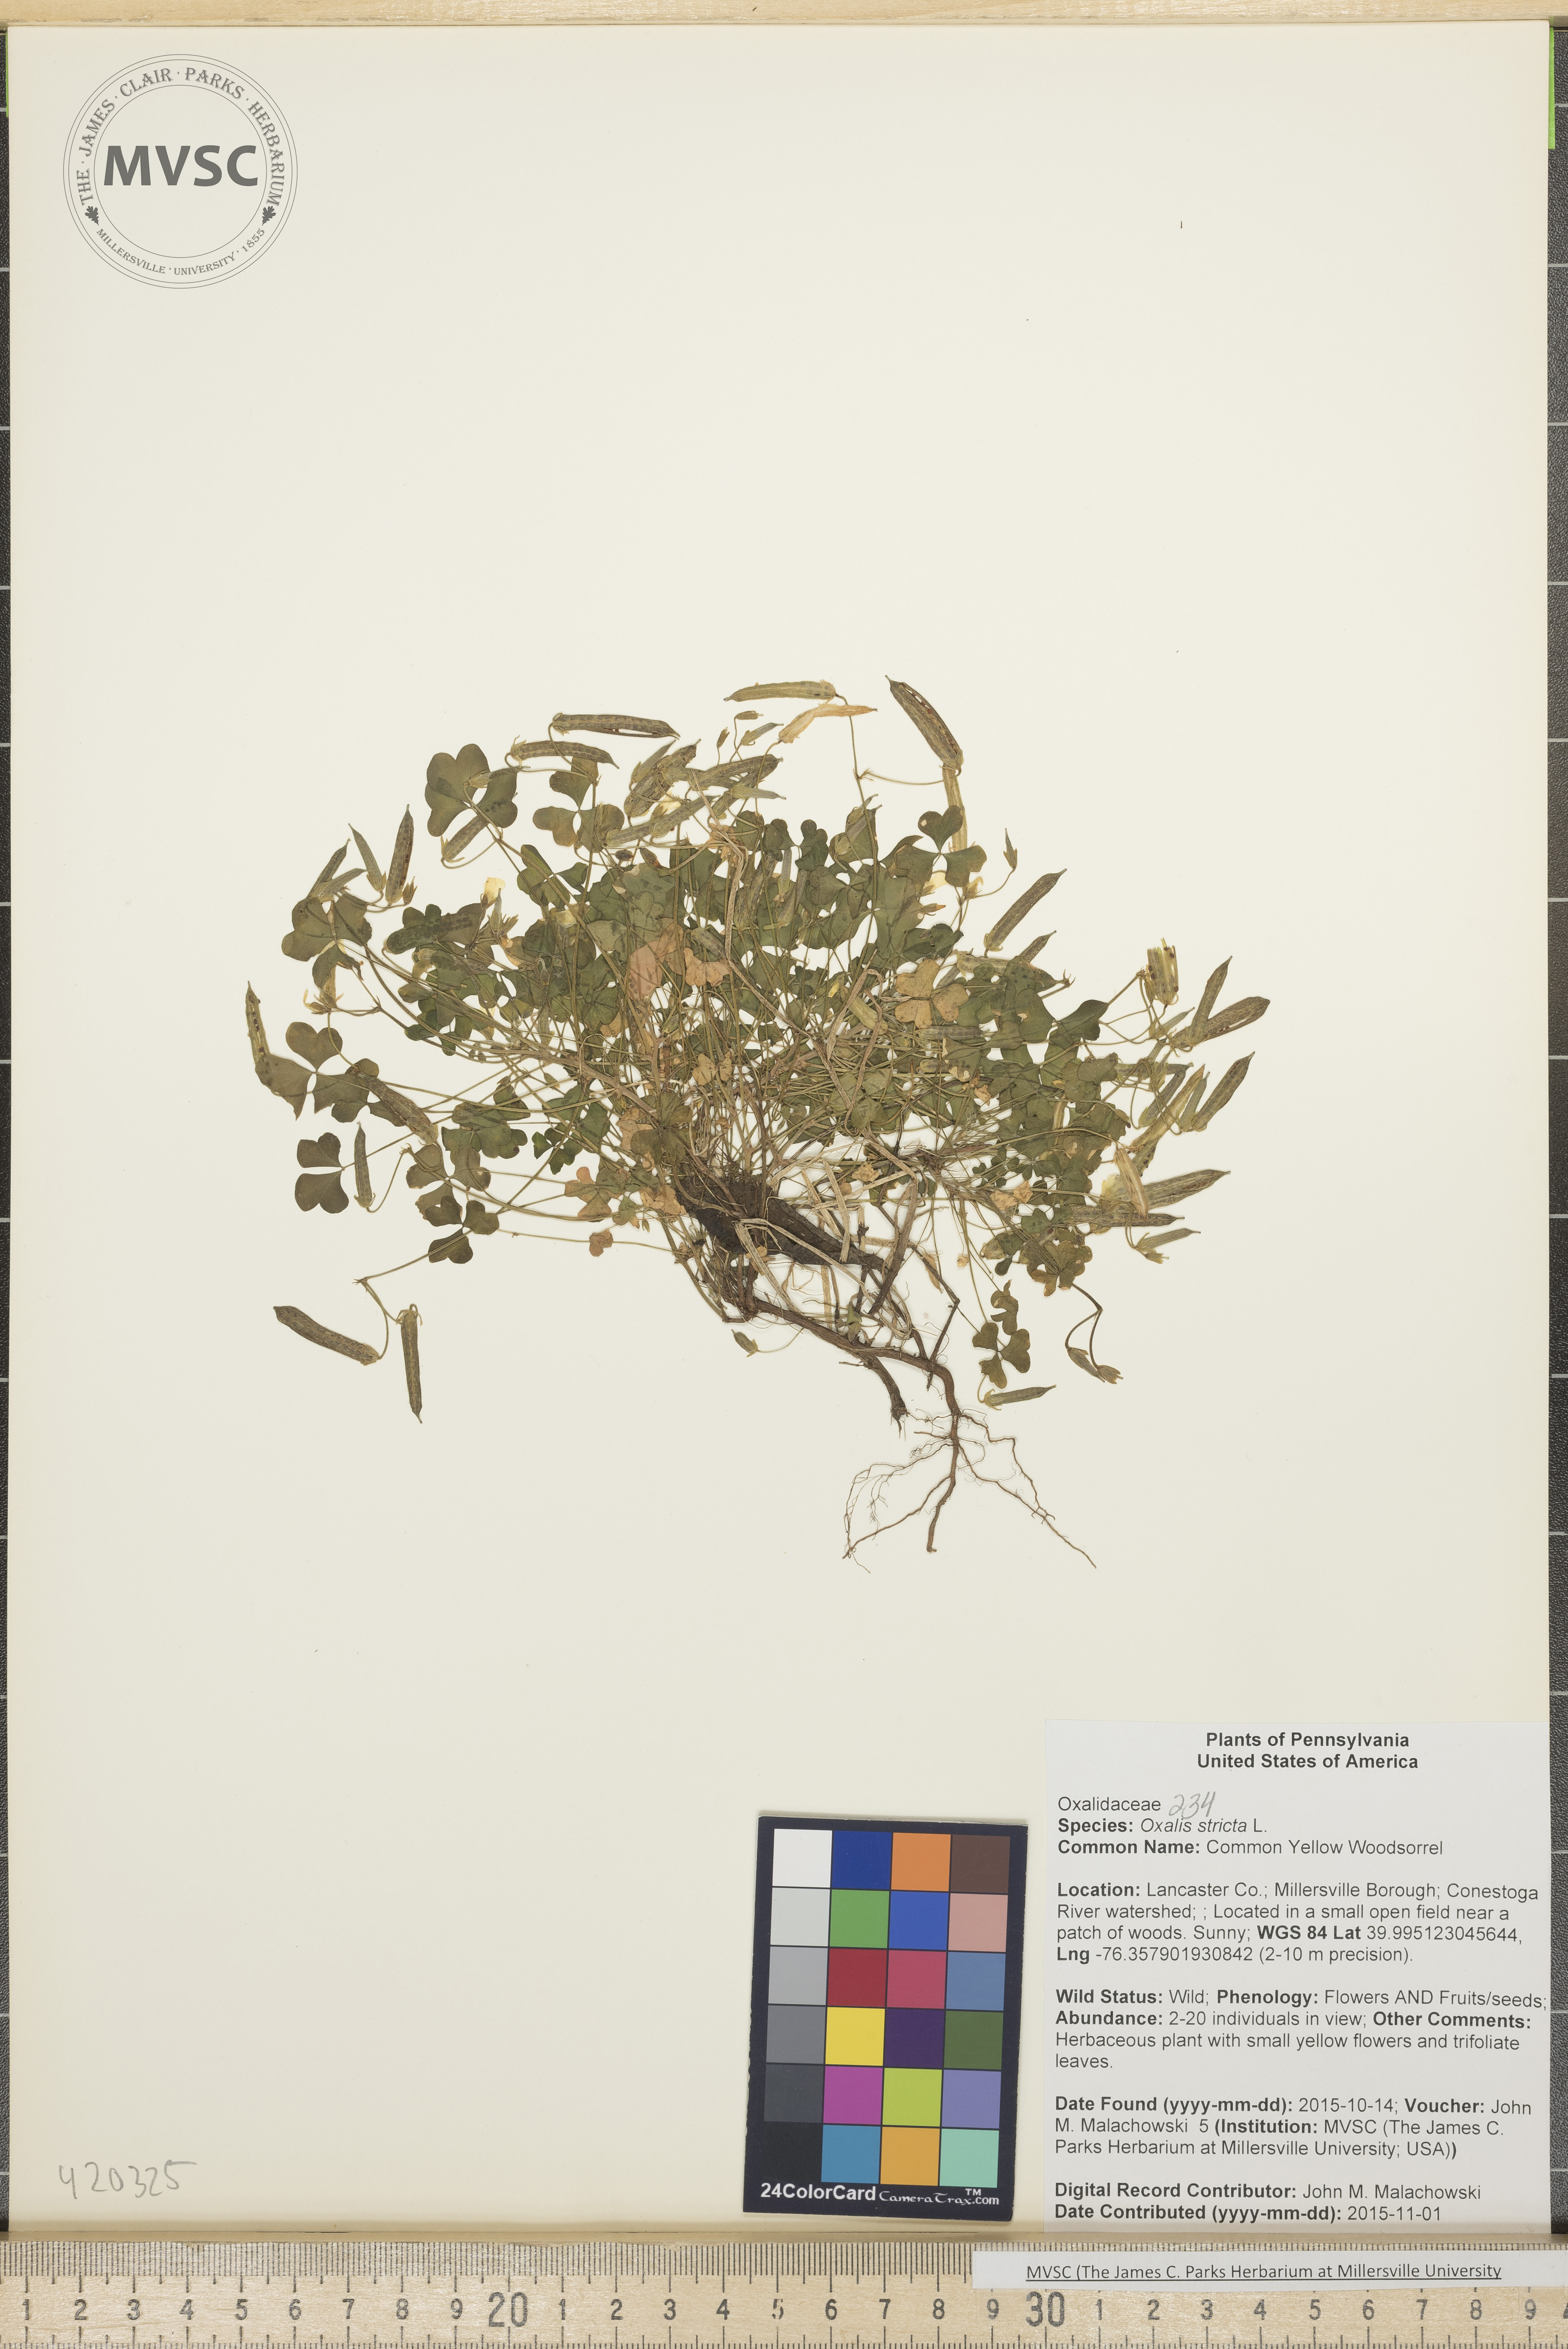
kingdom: Plantae
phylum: Tracheophyta
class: Magnoliopsida
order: Oxalidales
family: Oxalidaceae
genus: Oxalis
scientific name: Oxalis stricta
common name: common yellow woodsorrel
